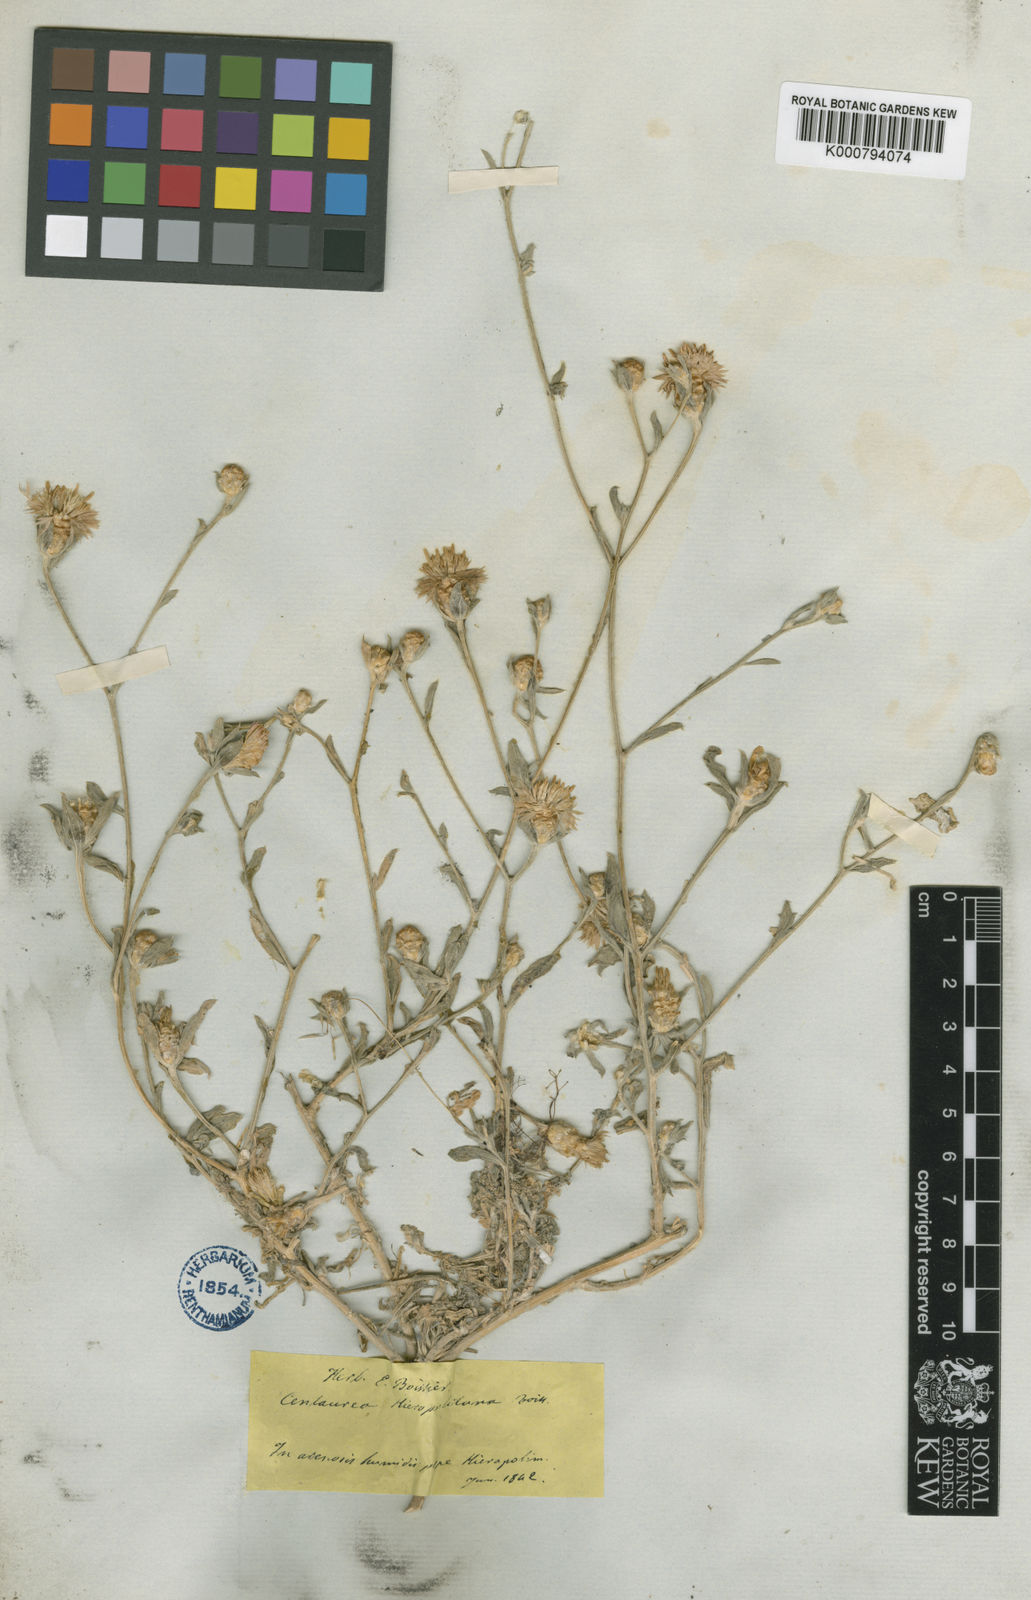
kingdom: Plantae
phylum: Tracheophyta
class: Magnoliopsida
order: Asterales
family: Asteraceae
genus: Centaurea
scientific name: Centaurea hierapolitana
